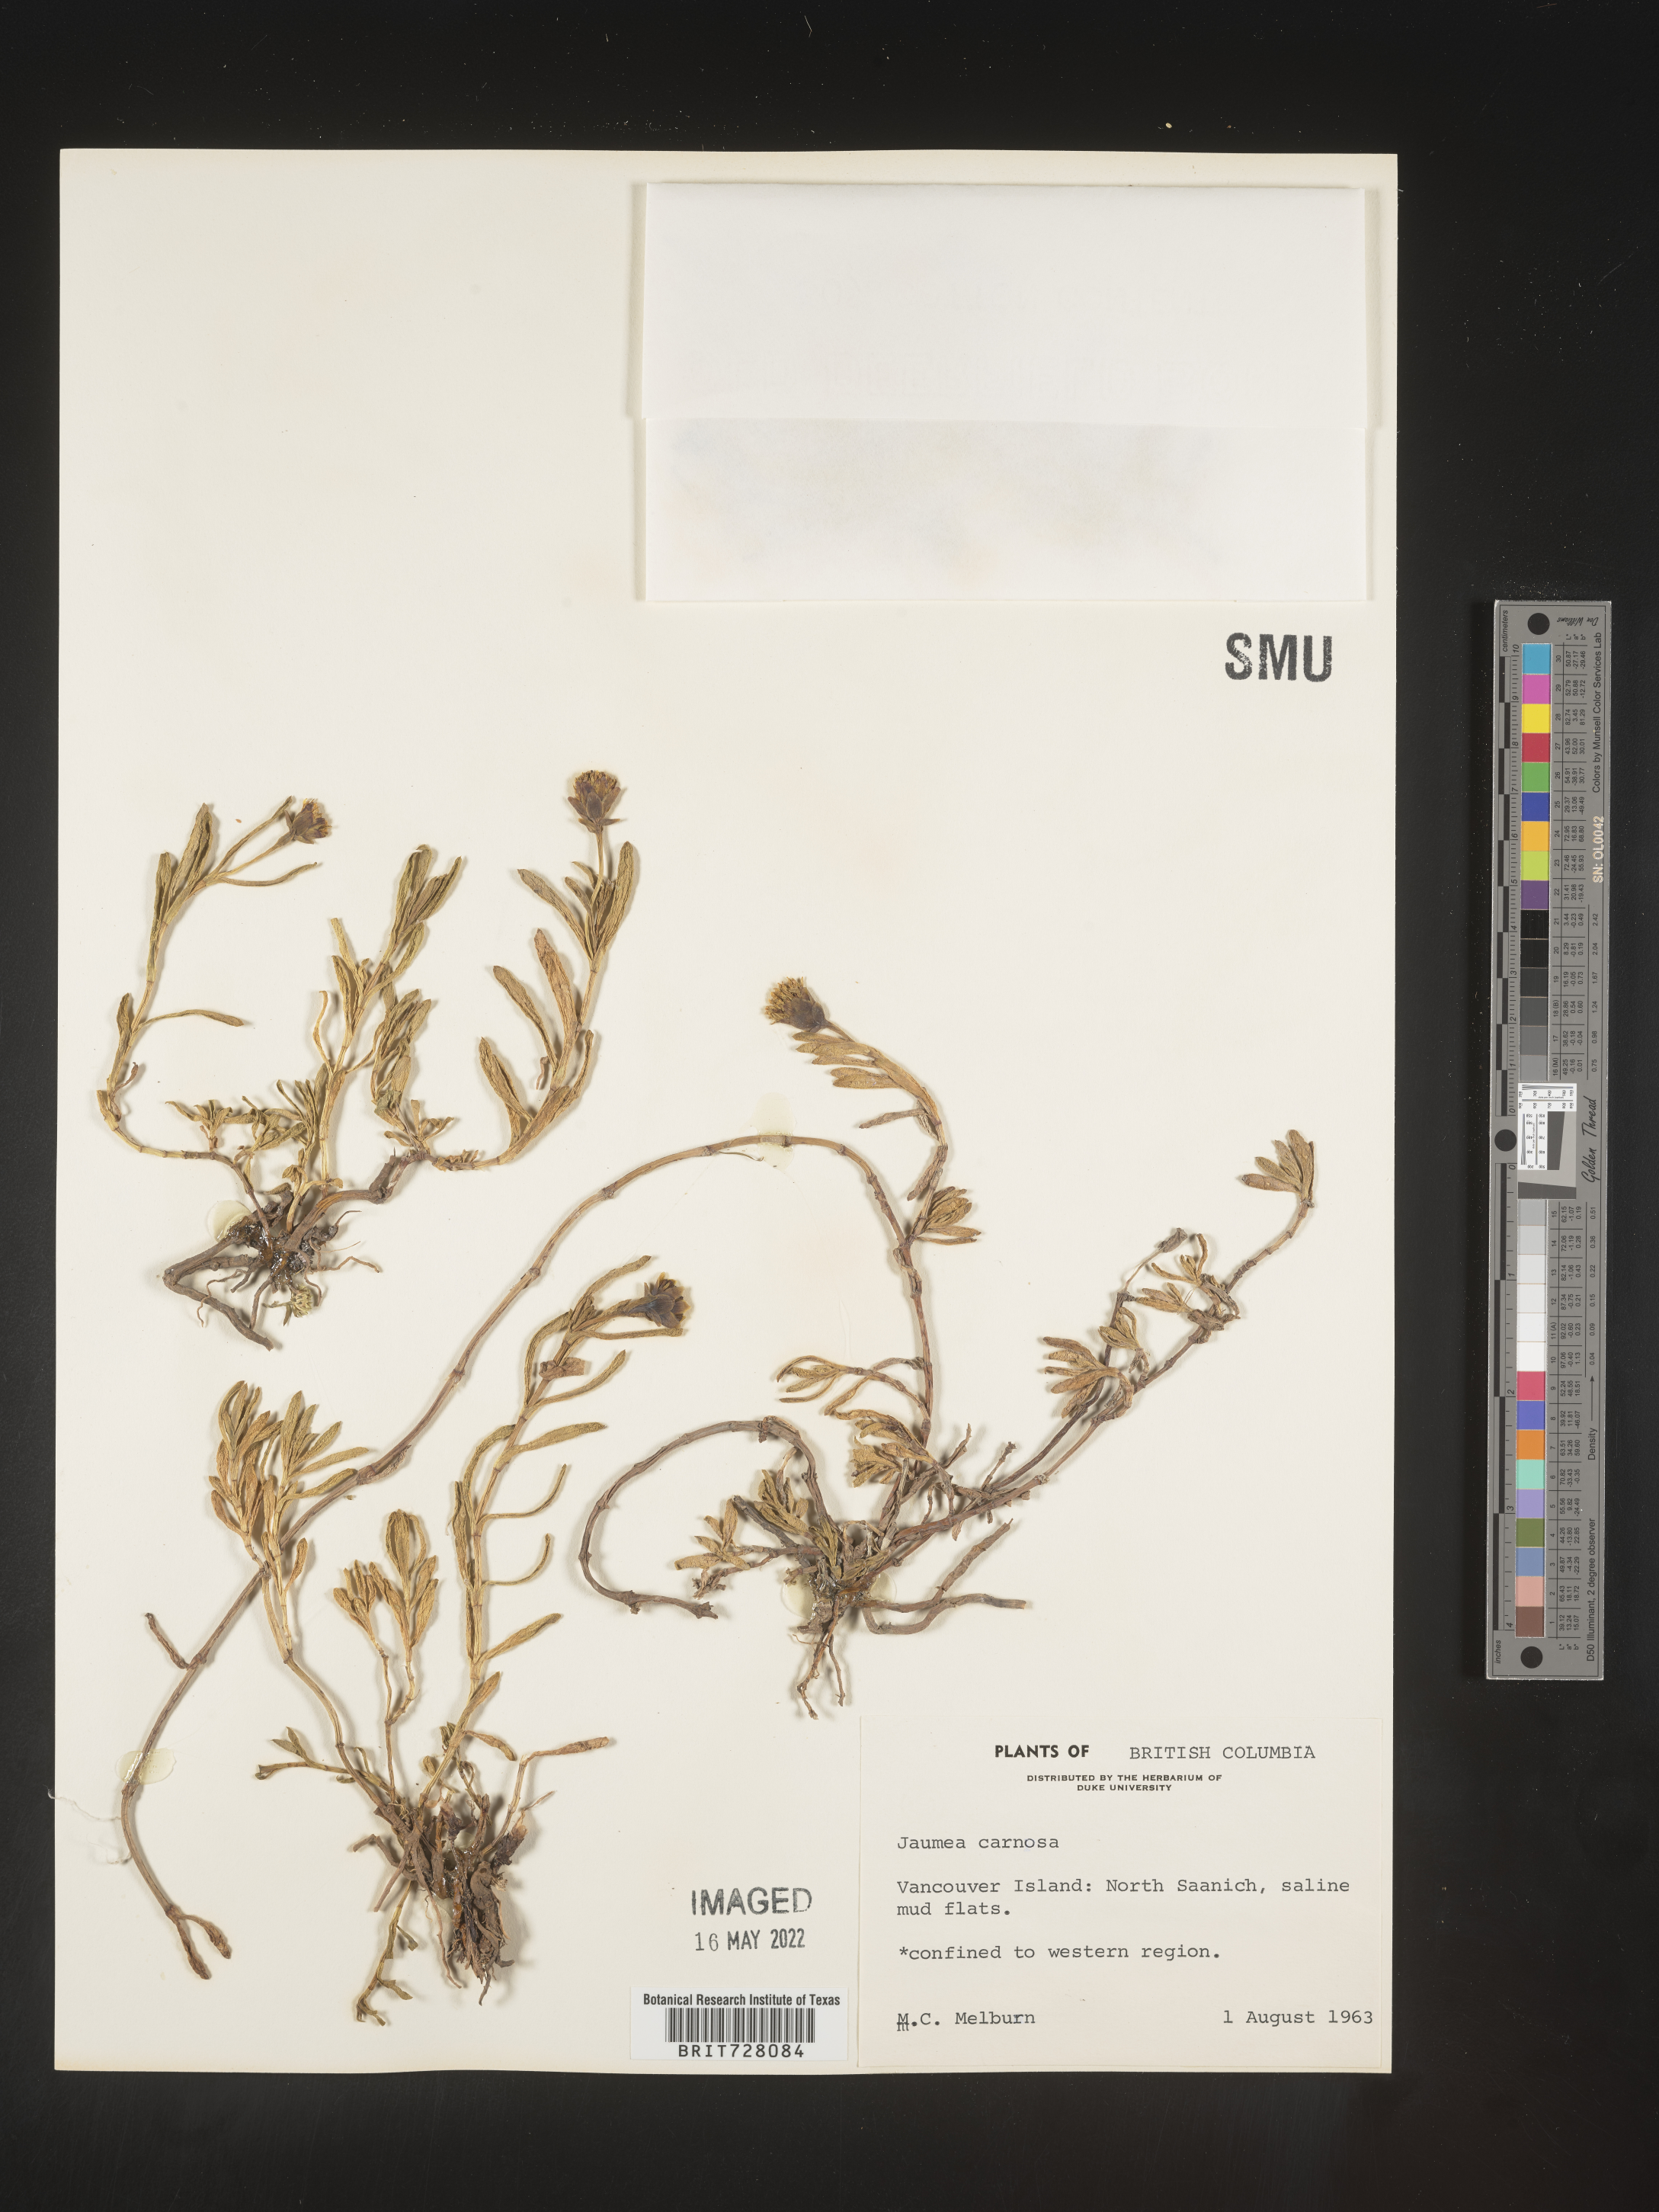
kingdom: Plantae
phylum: Tracheophyta
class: Magnoliopsida
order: Asterales
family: Asteraceae
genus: Jaumea
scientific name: Jaumea
